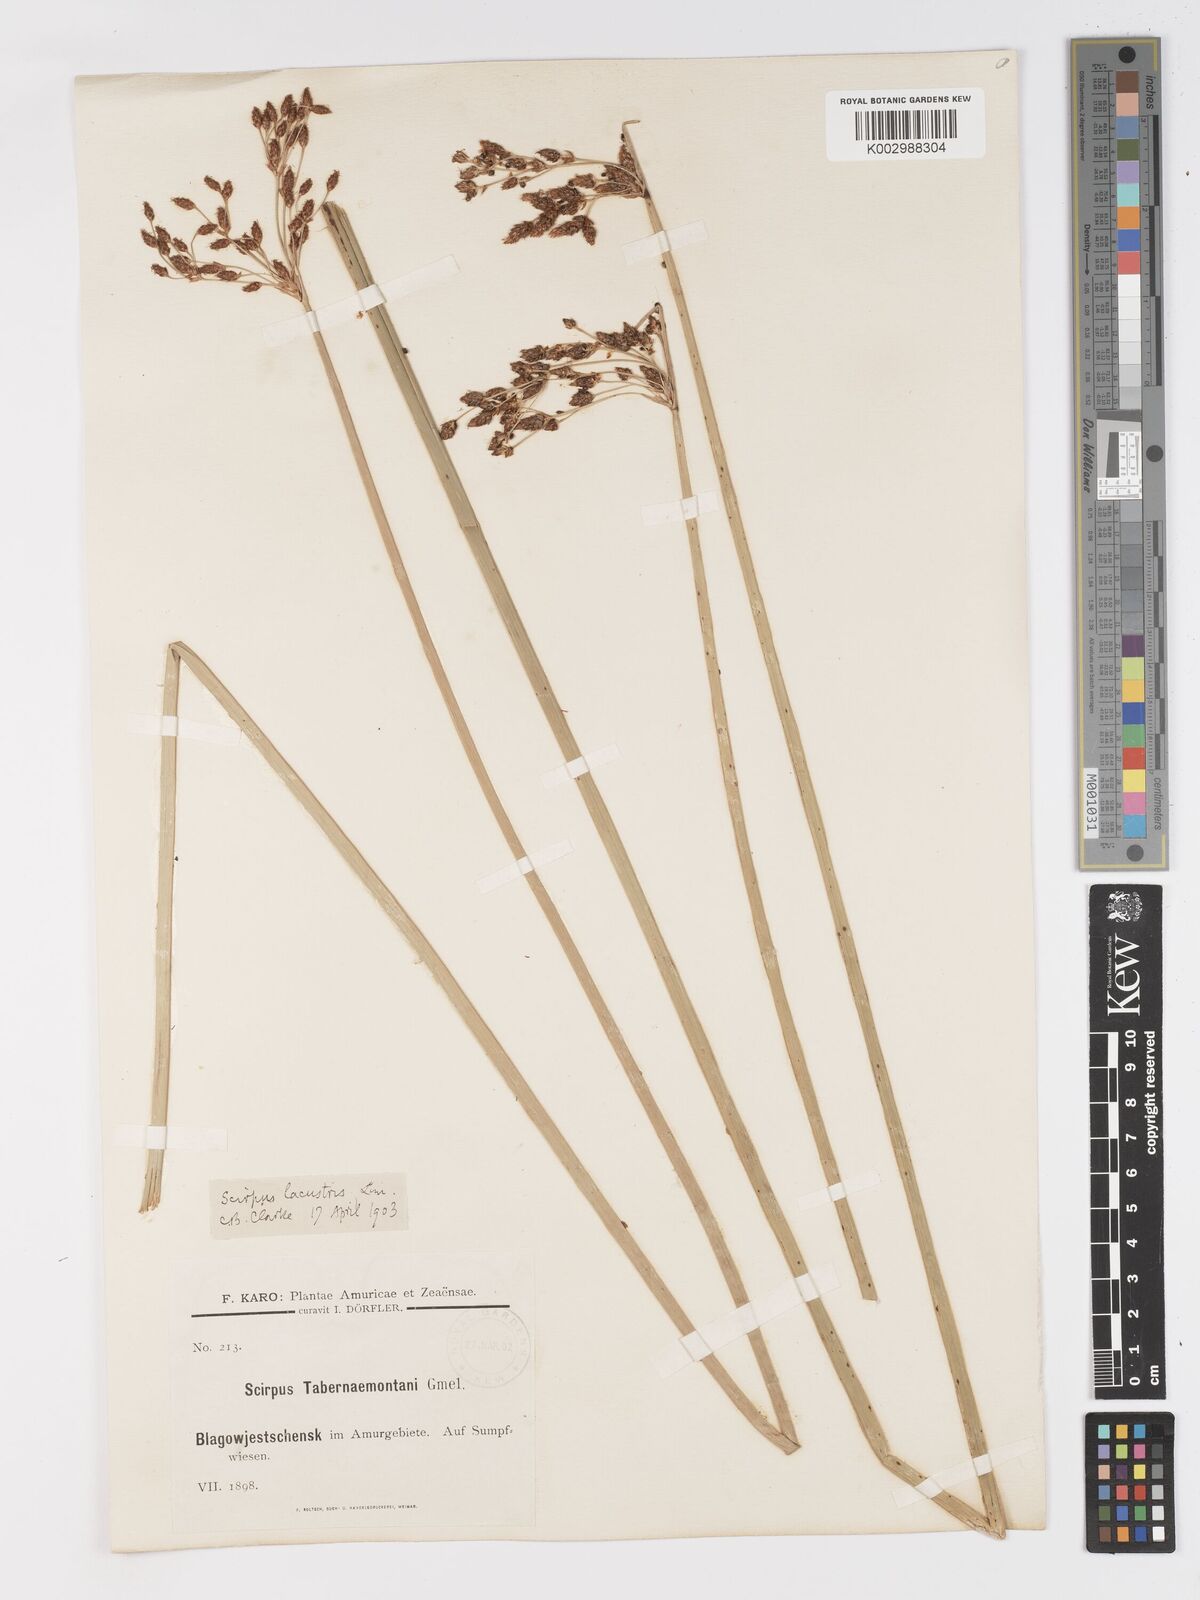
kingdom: Plantae
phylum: Tracheophyta
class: Liliopsida
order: Poales
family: Cyperaceae
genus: Schoenoplectus
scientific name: Schoenoplectus lacustris
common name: Common club-rush
